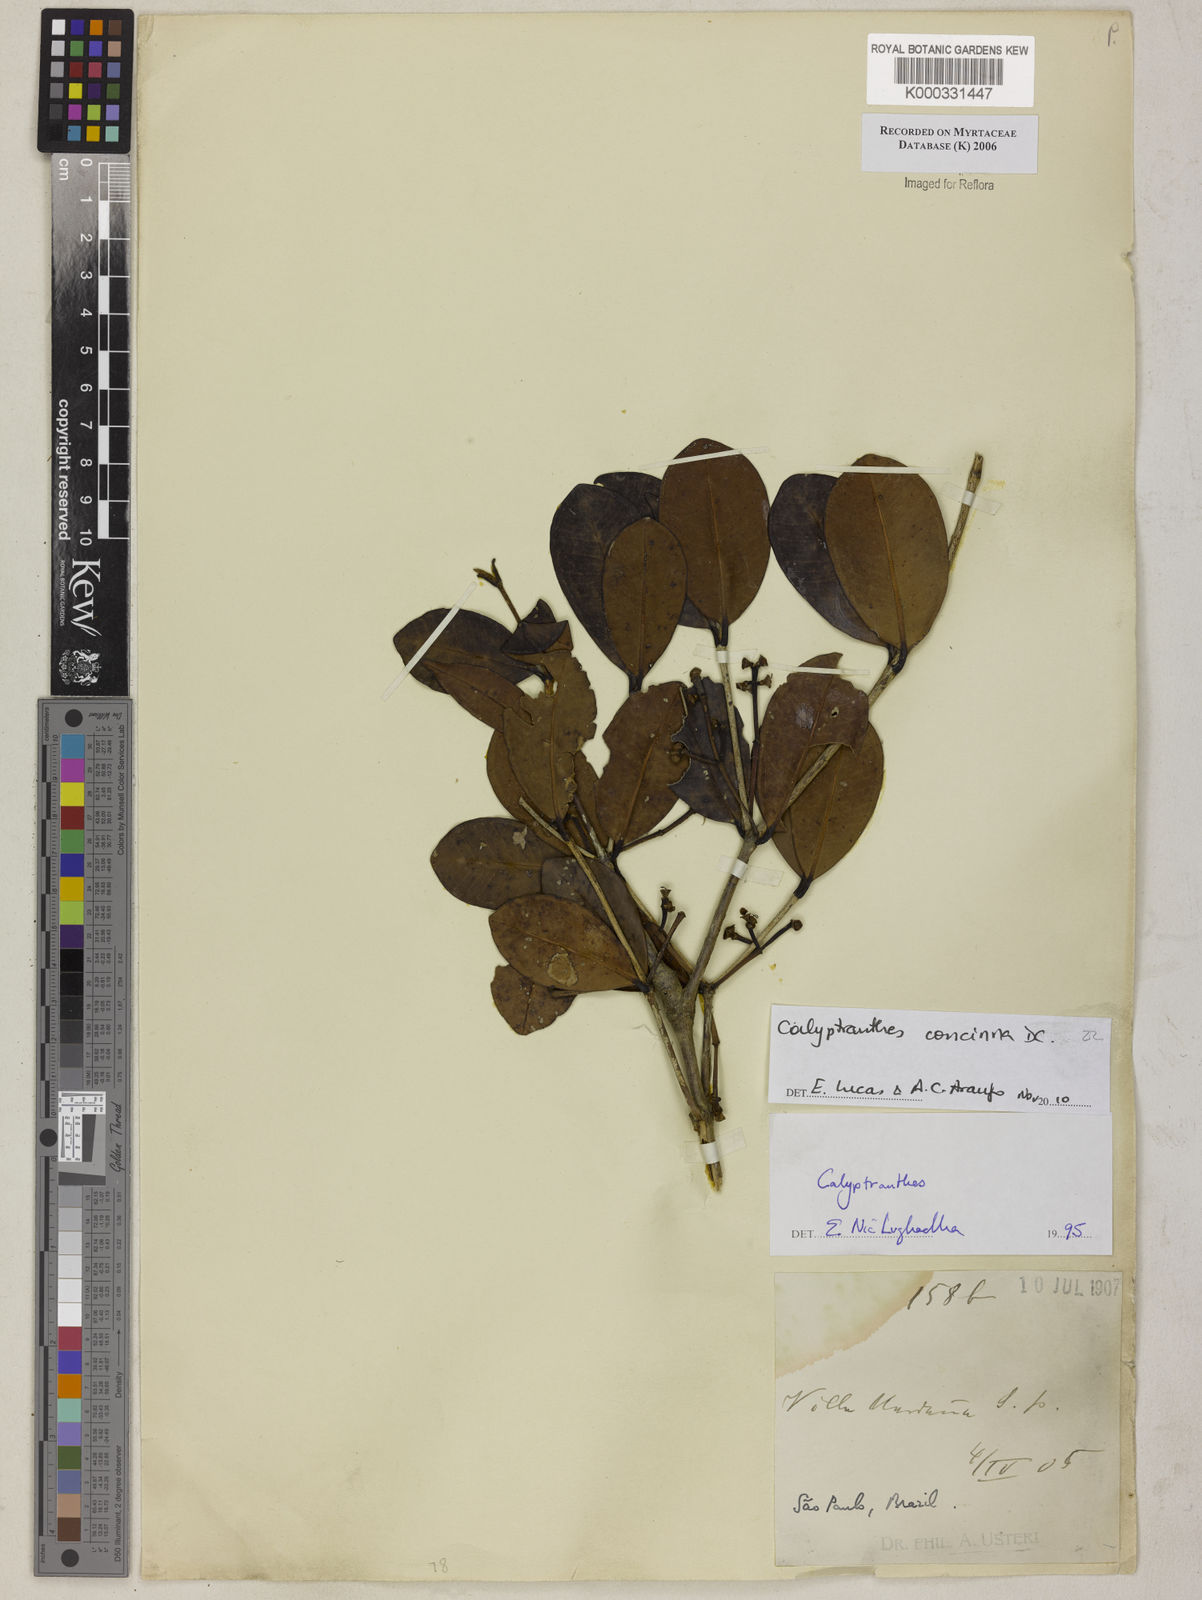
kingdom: Plantae
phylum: Tracheophyta
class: Magnoliopsida
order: Myrtales
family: Myrtaceae
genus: Calyptranthes
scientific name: Calyptranthes
